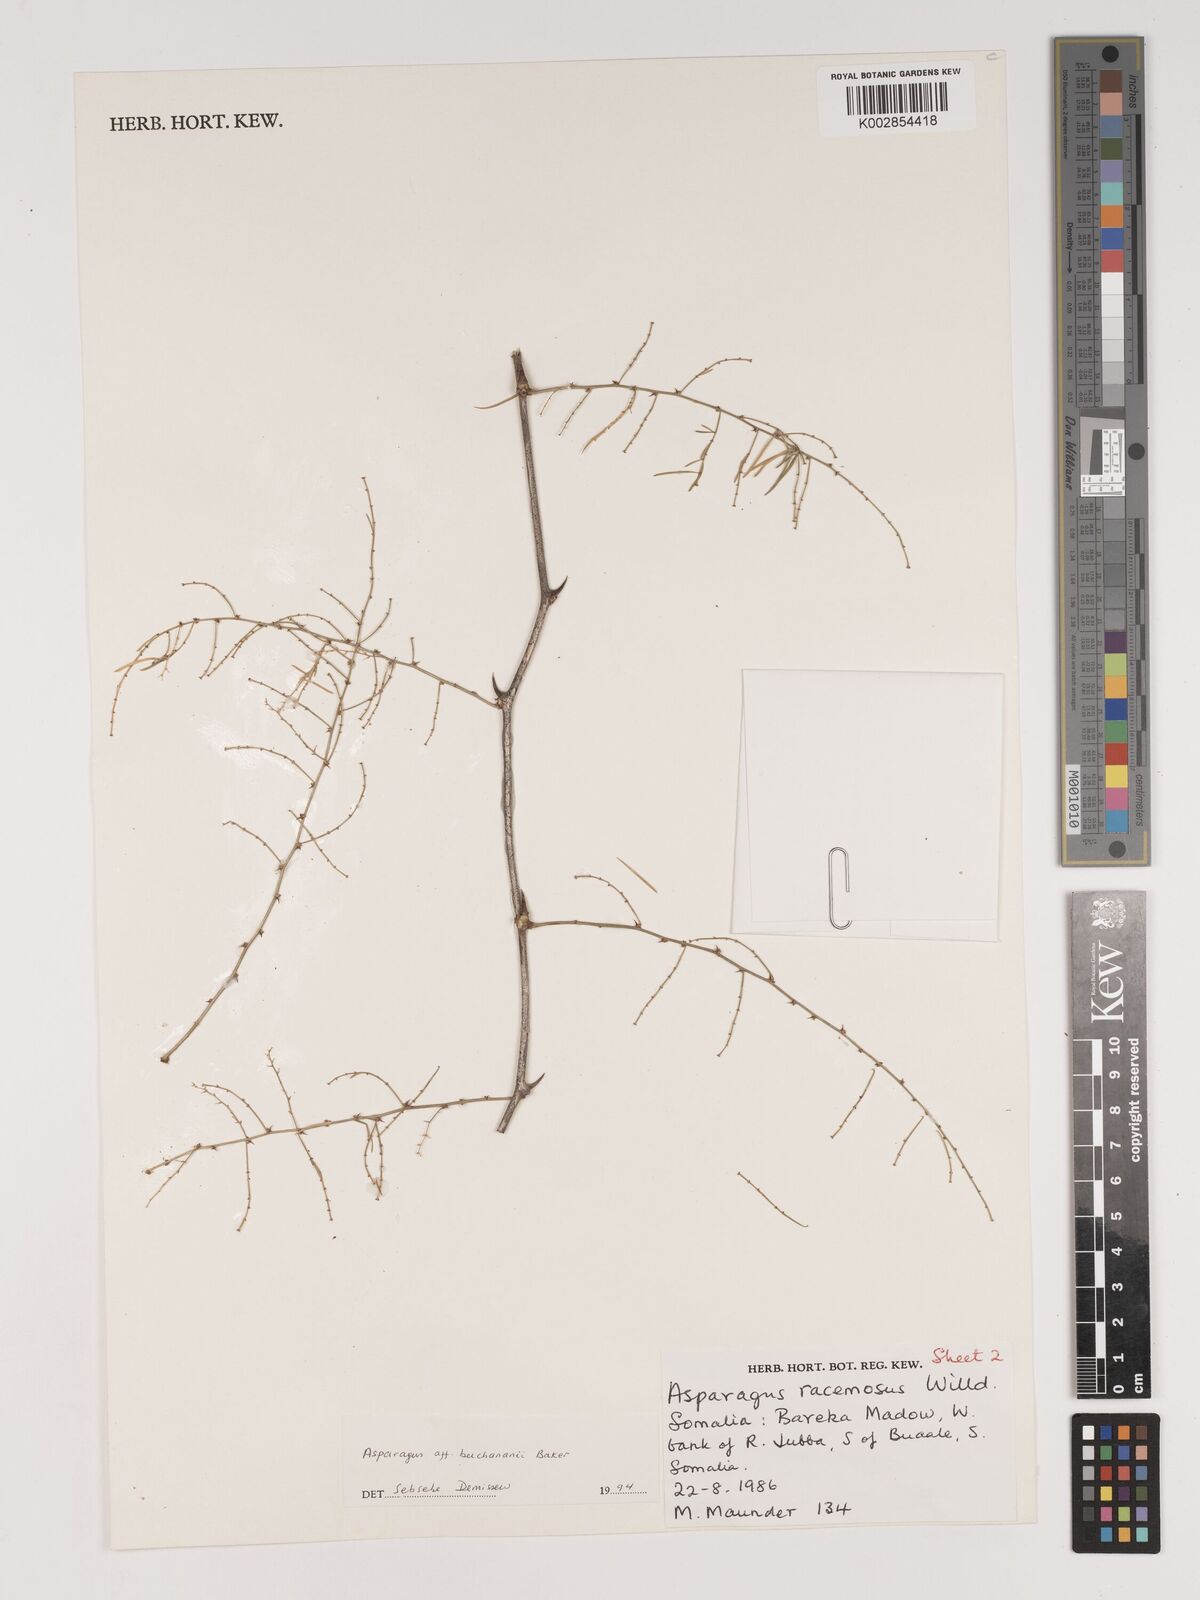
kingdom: Plantae
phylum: Tracheophyta
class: Liliopsida
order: Asparagales
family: Asparagaceae
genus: Asparagus
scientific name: Asparagus buchananii
